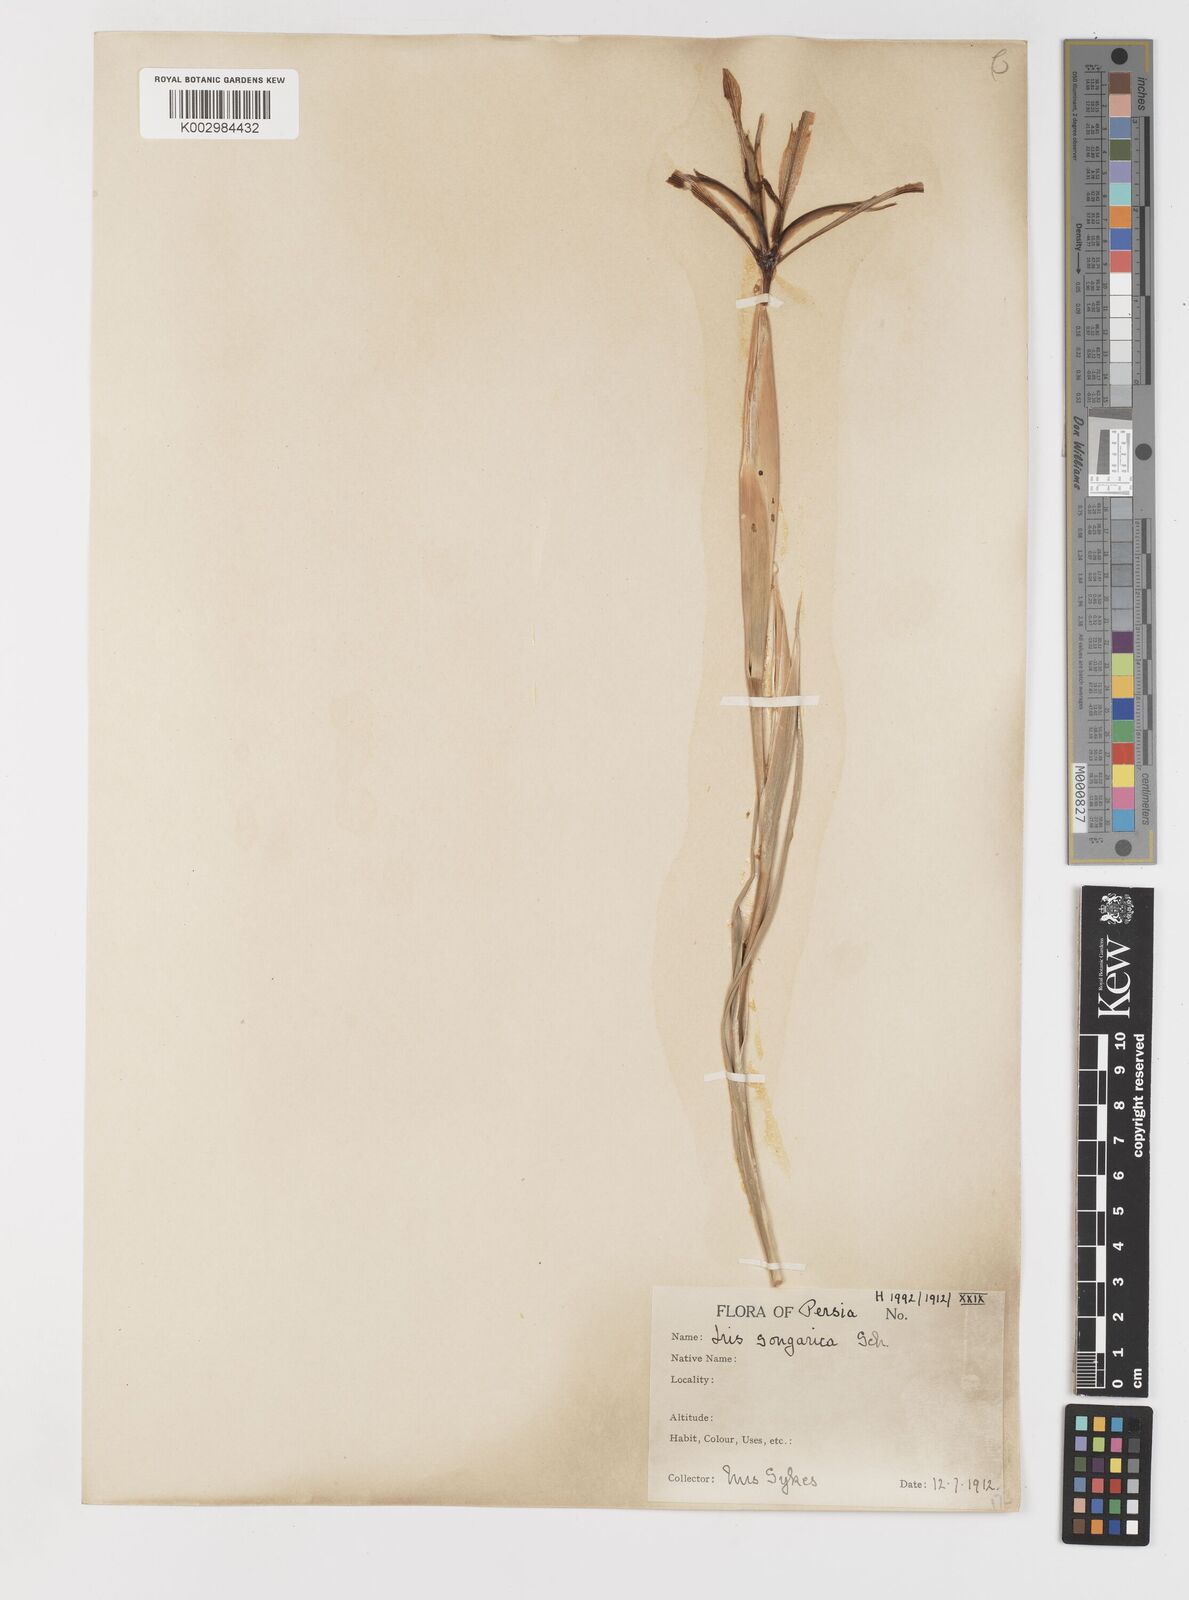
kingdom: Plantae
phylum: Tracheophyta
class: Liliopsida
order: Asparagales
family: Iridaceae
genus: Iris
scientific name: Iris songarica
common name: Songar iris
